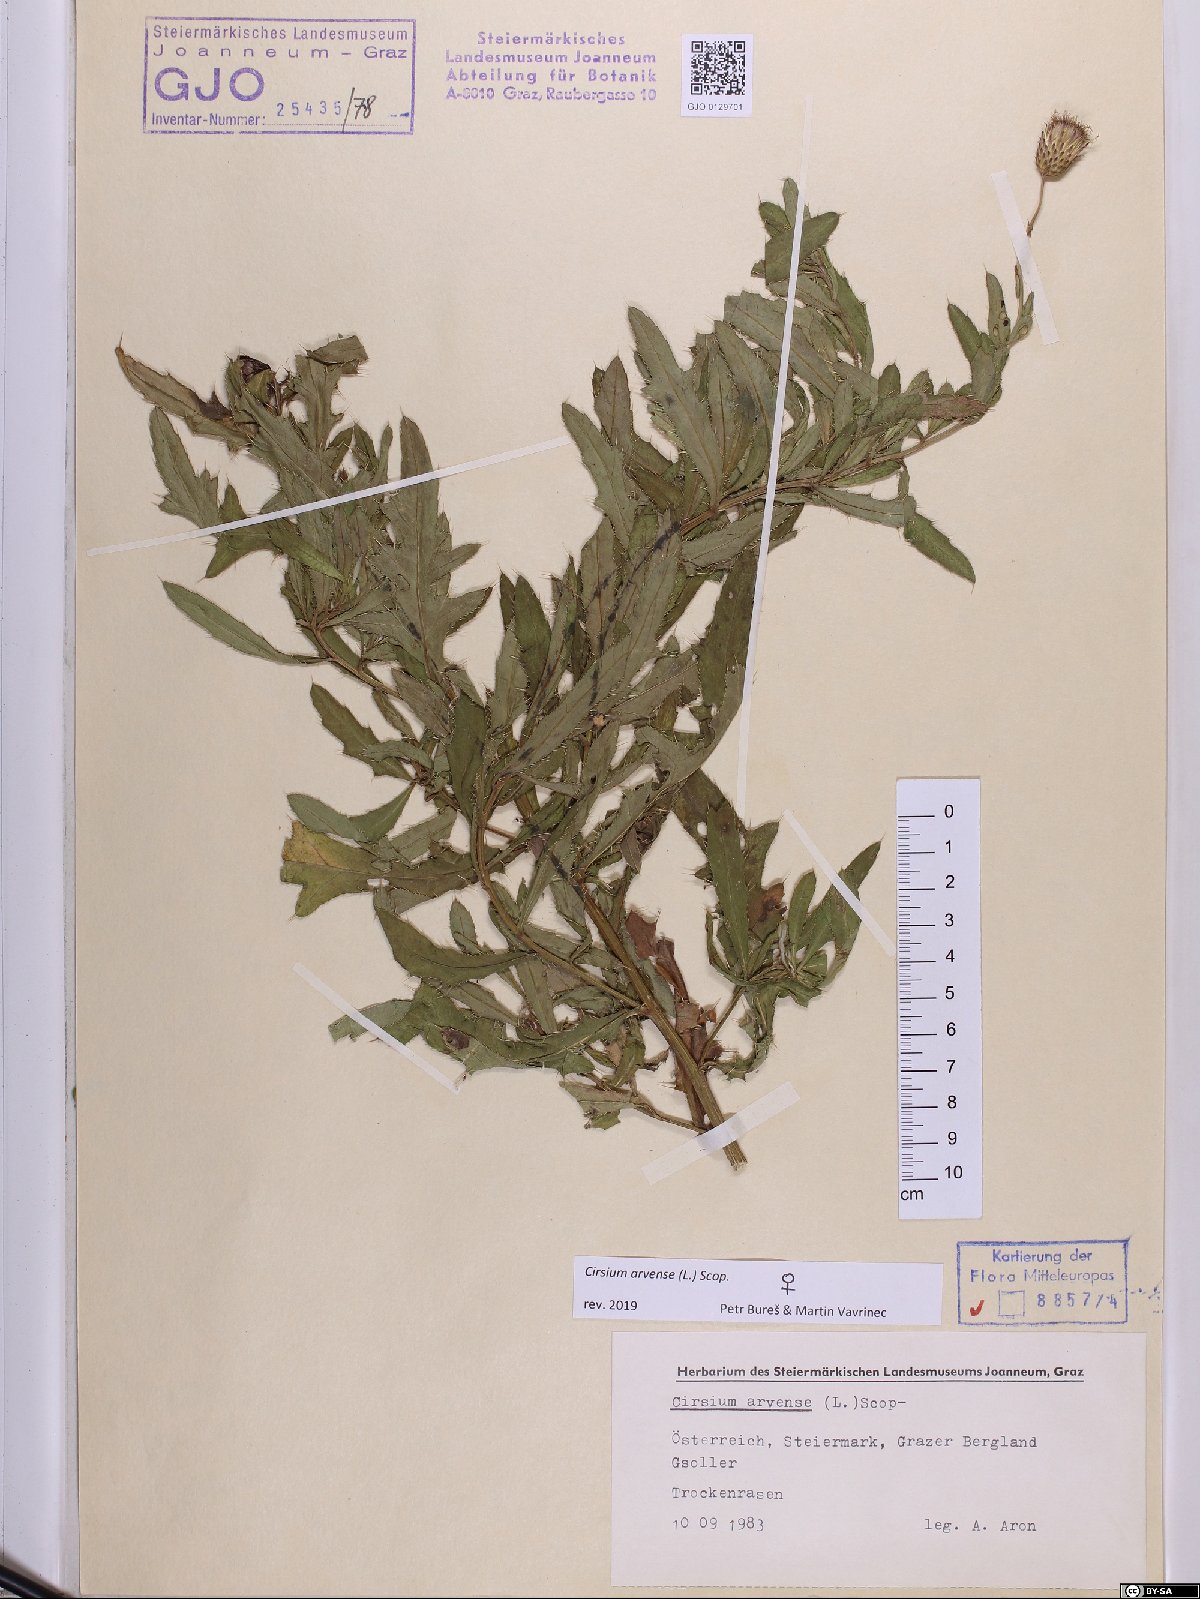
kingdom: Plantae
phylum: Tracheophyta
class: Magnoliopsida
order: Asterales
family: Asteraceae
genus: Cirsium
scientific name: Cirsium arvense
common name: Creeping thistle
